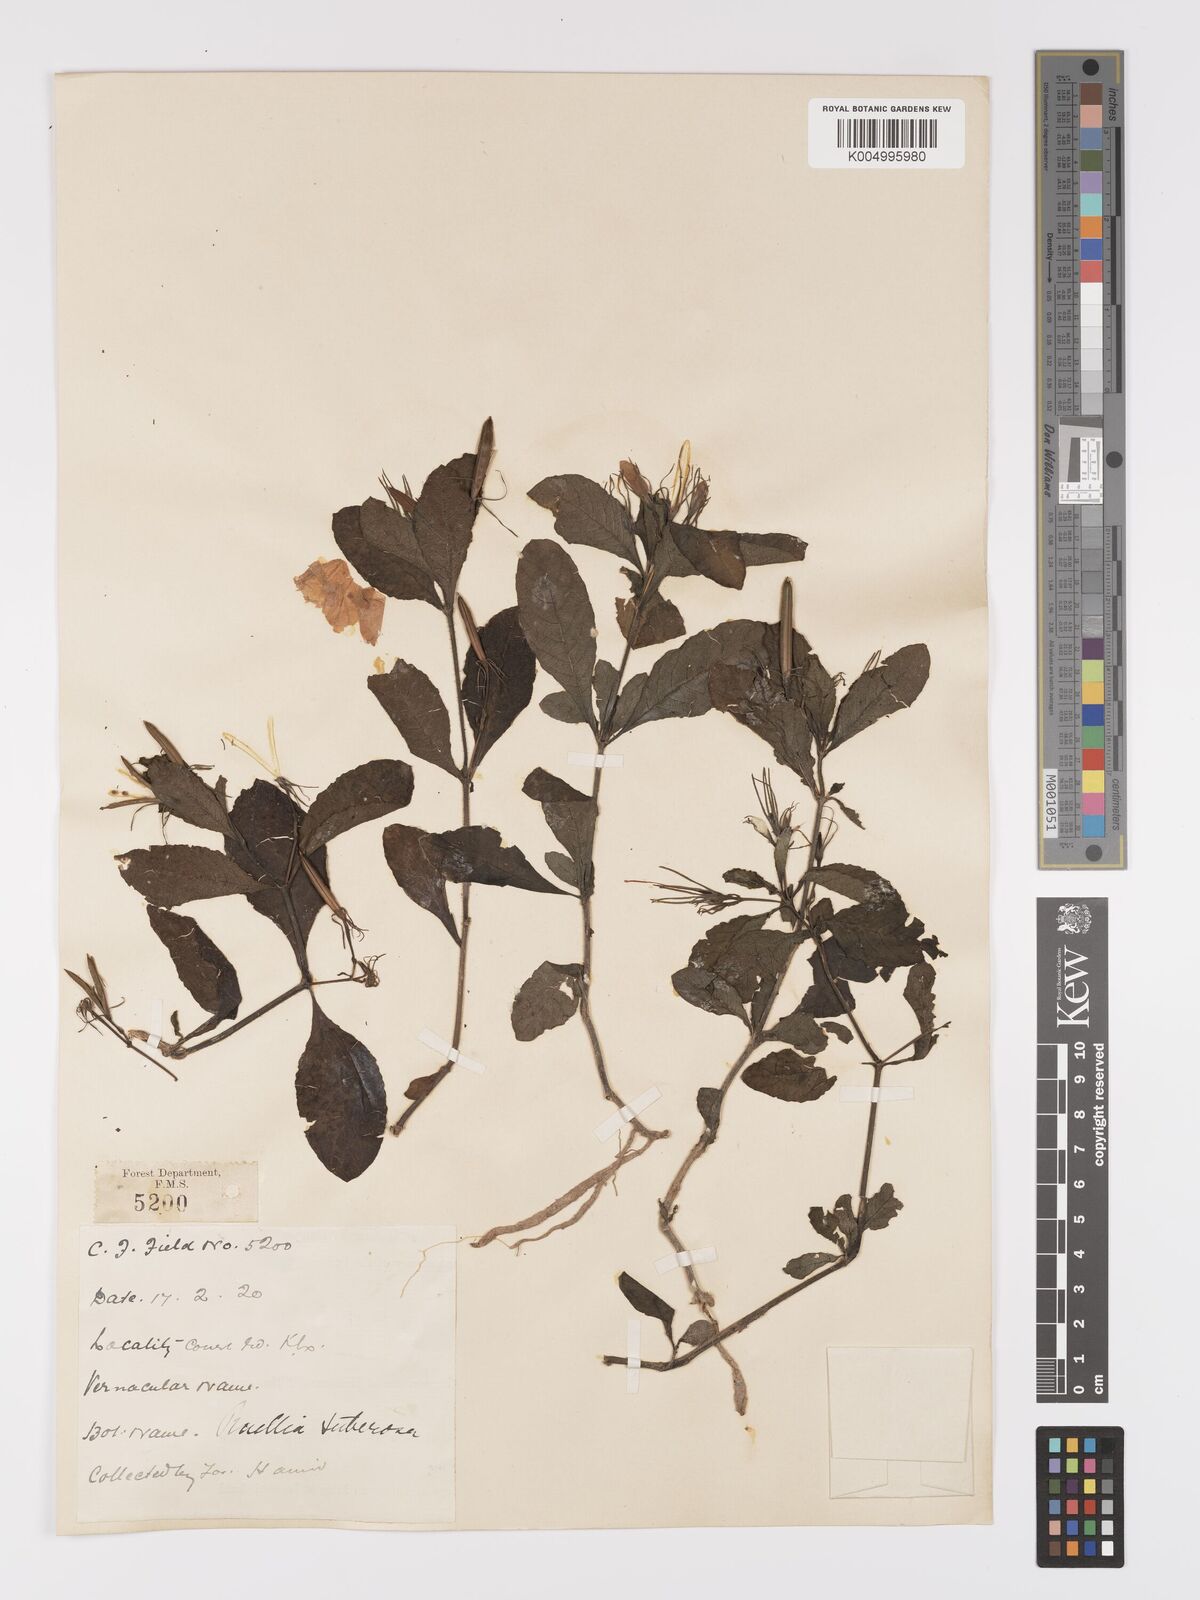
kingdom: Plantae
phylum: Tracheophyta
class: Magnoliopsida
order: Lamiales
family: Acanthaceae
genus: Ruellia
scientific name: Ruellia tuberosa
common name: Devil's bit
